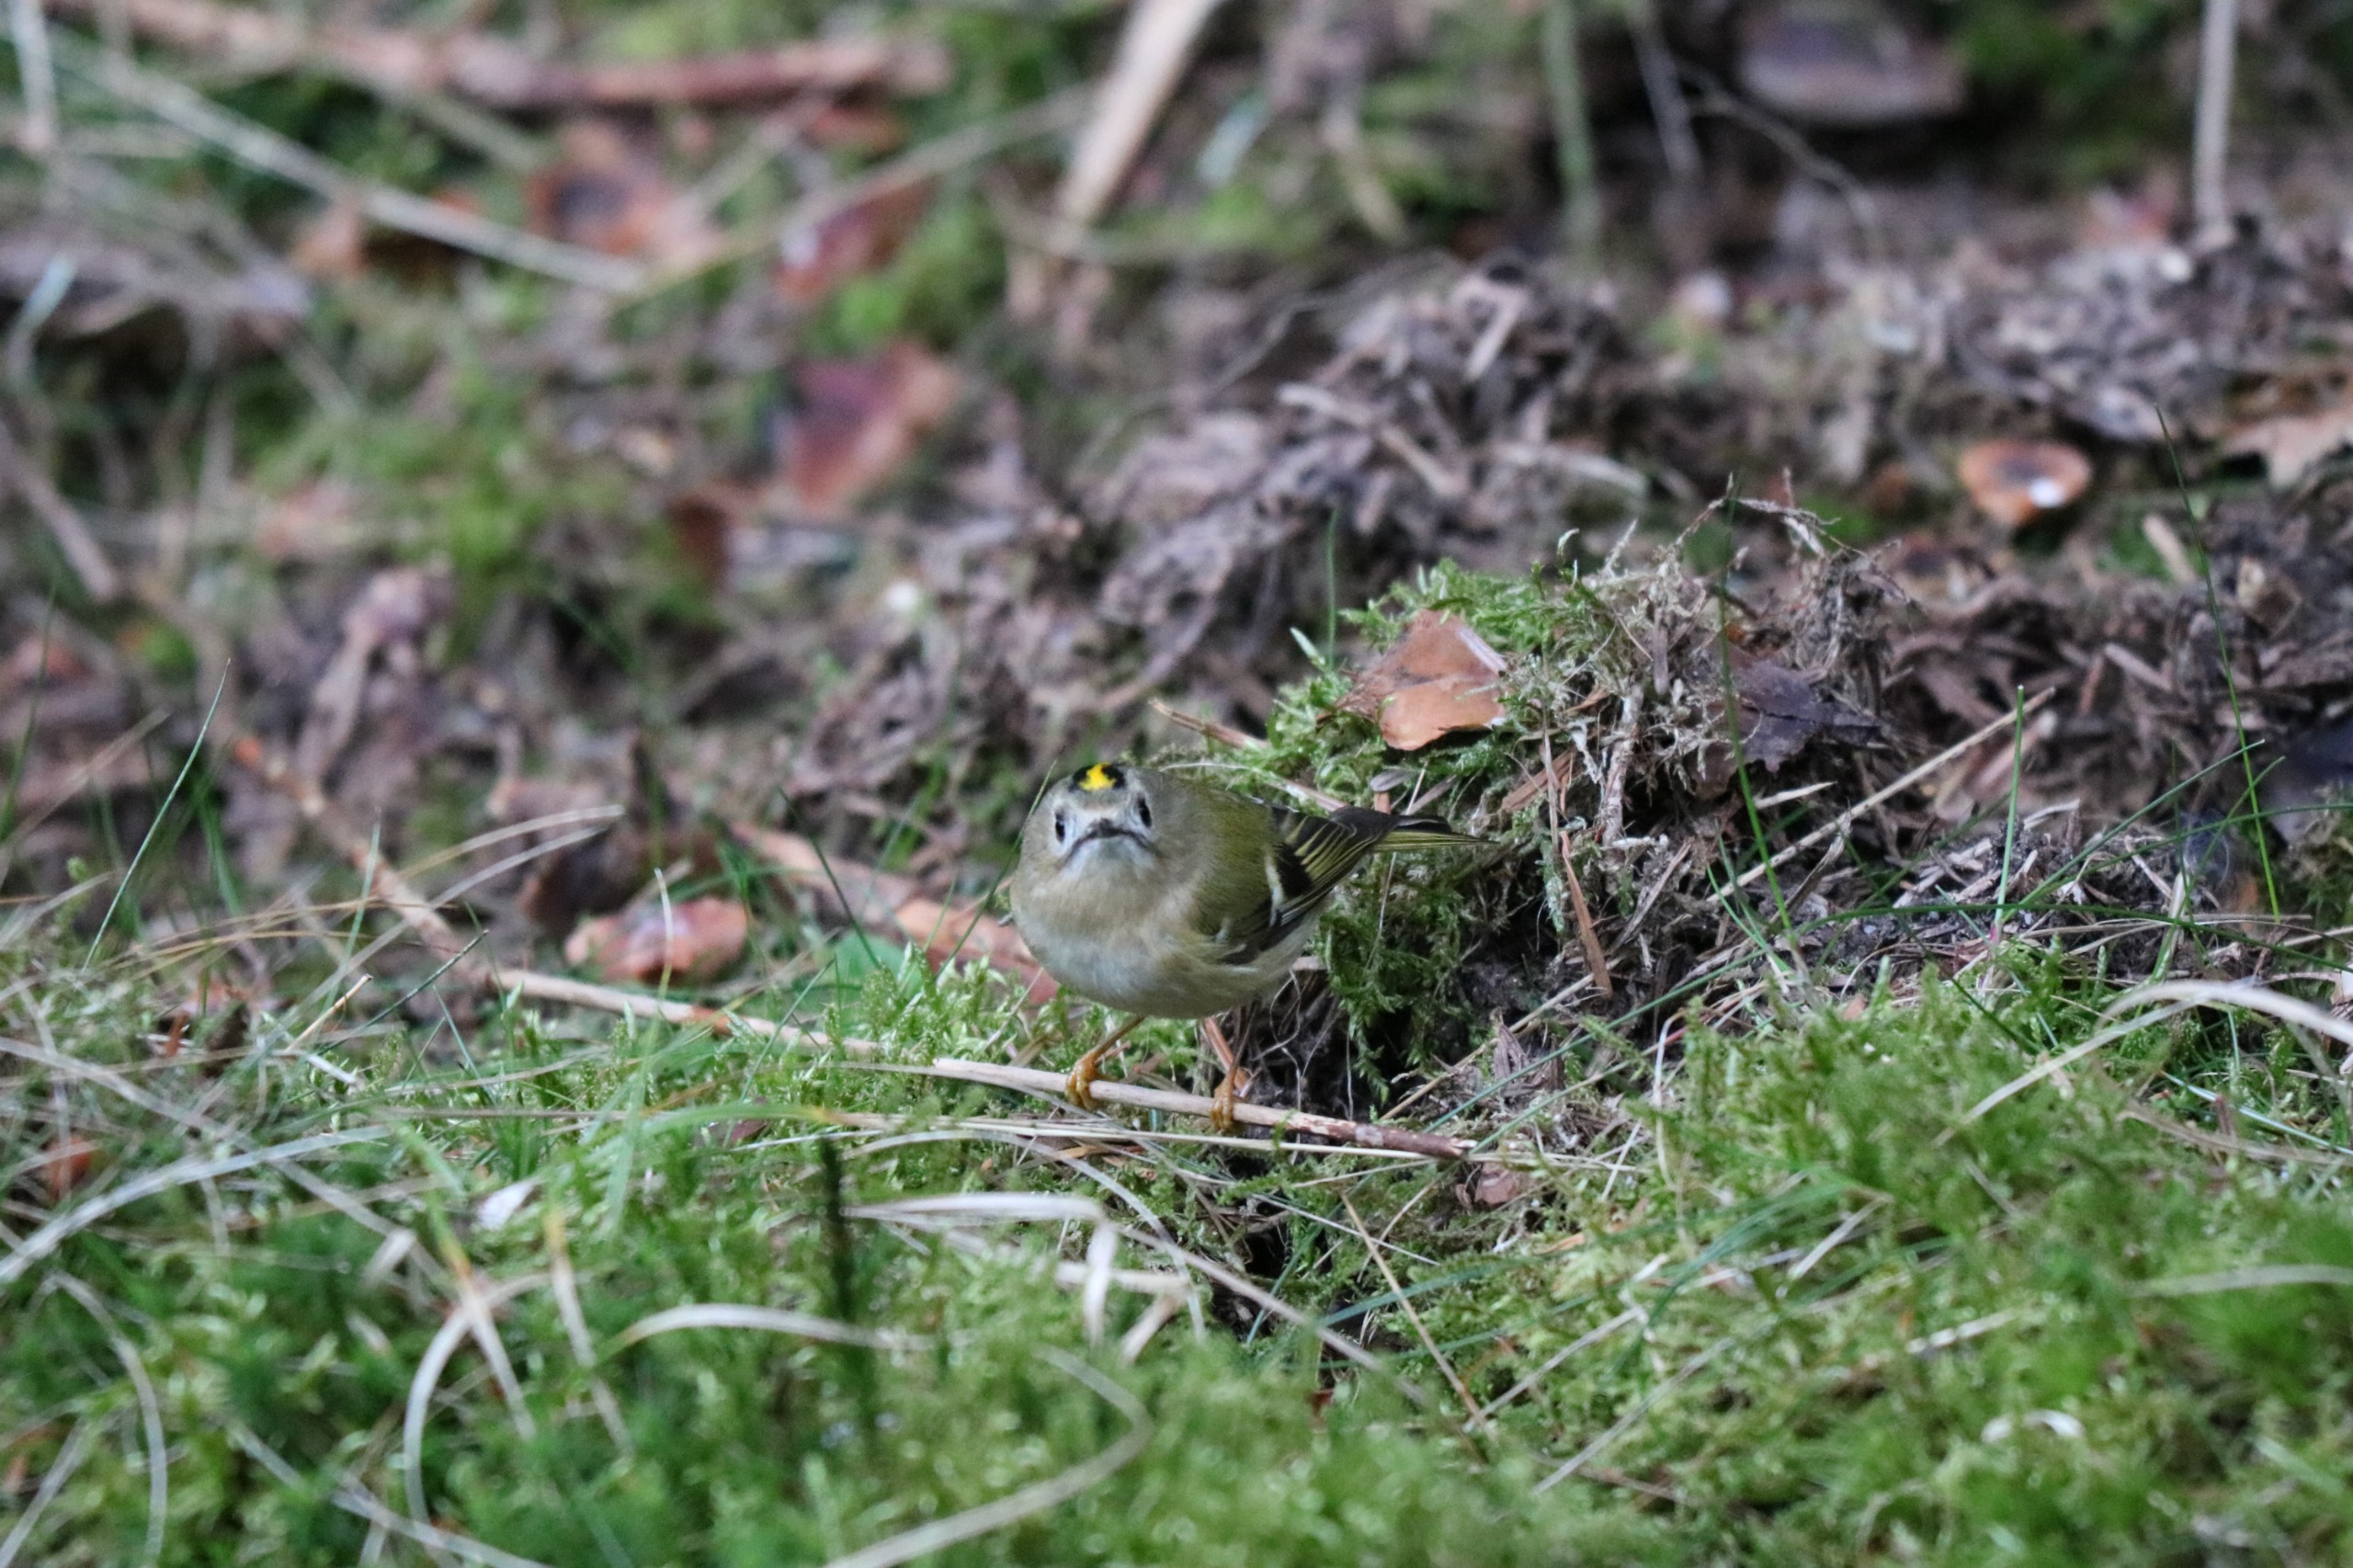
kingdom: Animalia
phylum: Chordata
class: Aves
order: Passeriformes
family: Regulidae
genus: Regulus
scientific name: Regulus regulus
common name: Fuglekonge
